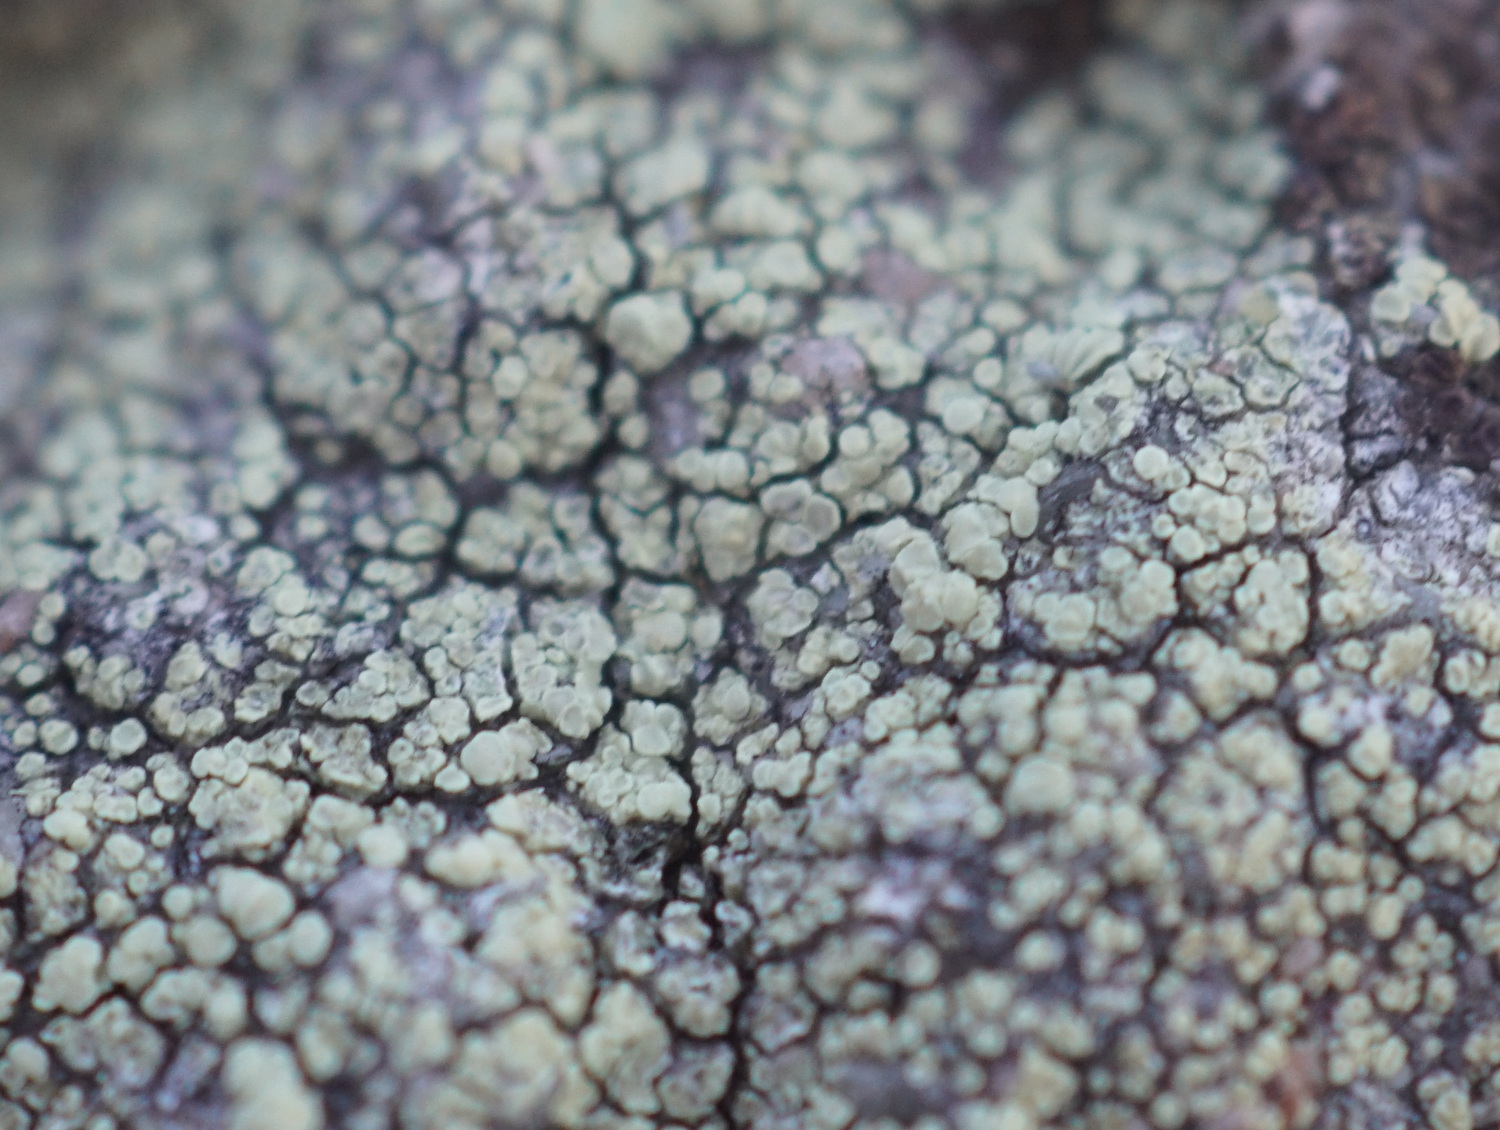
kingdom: Fungi
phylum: Ascomycota
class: Lecanoromycetes
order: Lecanorales
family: Lecanoraceae
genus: Lecanora
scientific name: Lecanora polytropa
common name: bleggrøn kantskivelav
